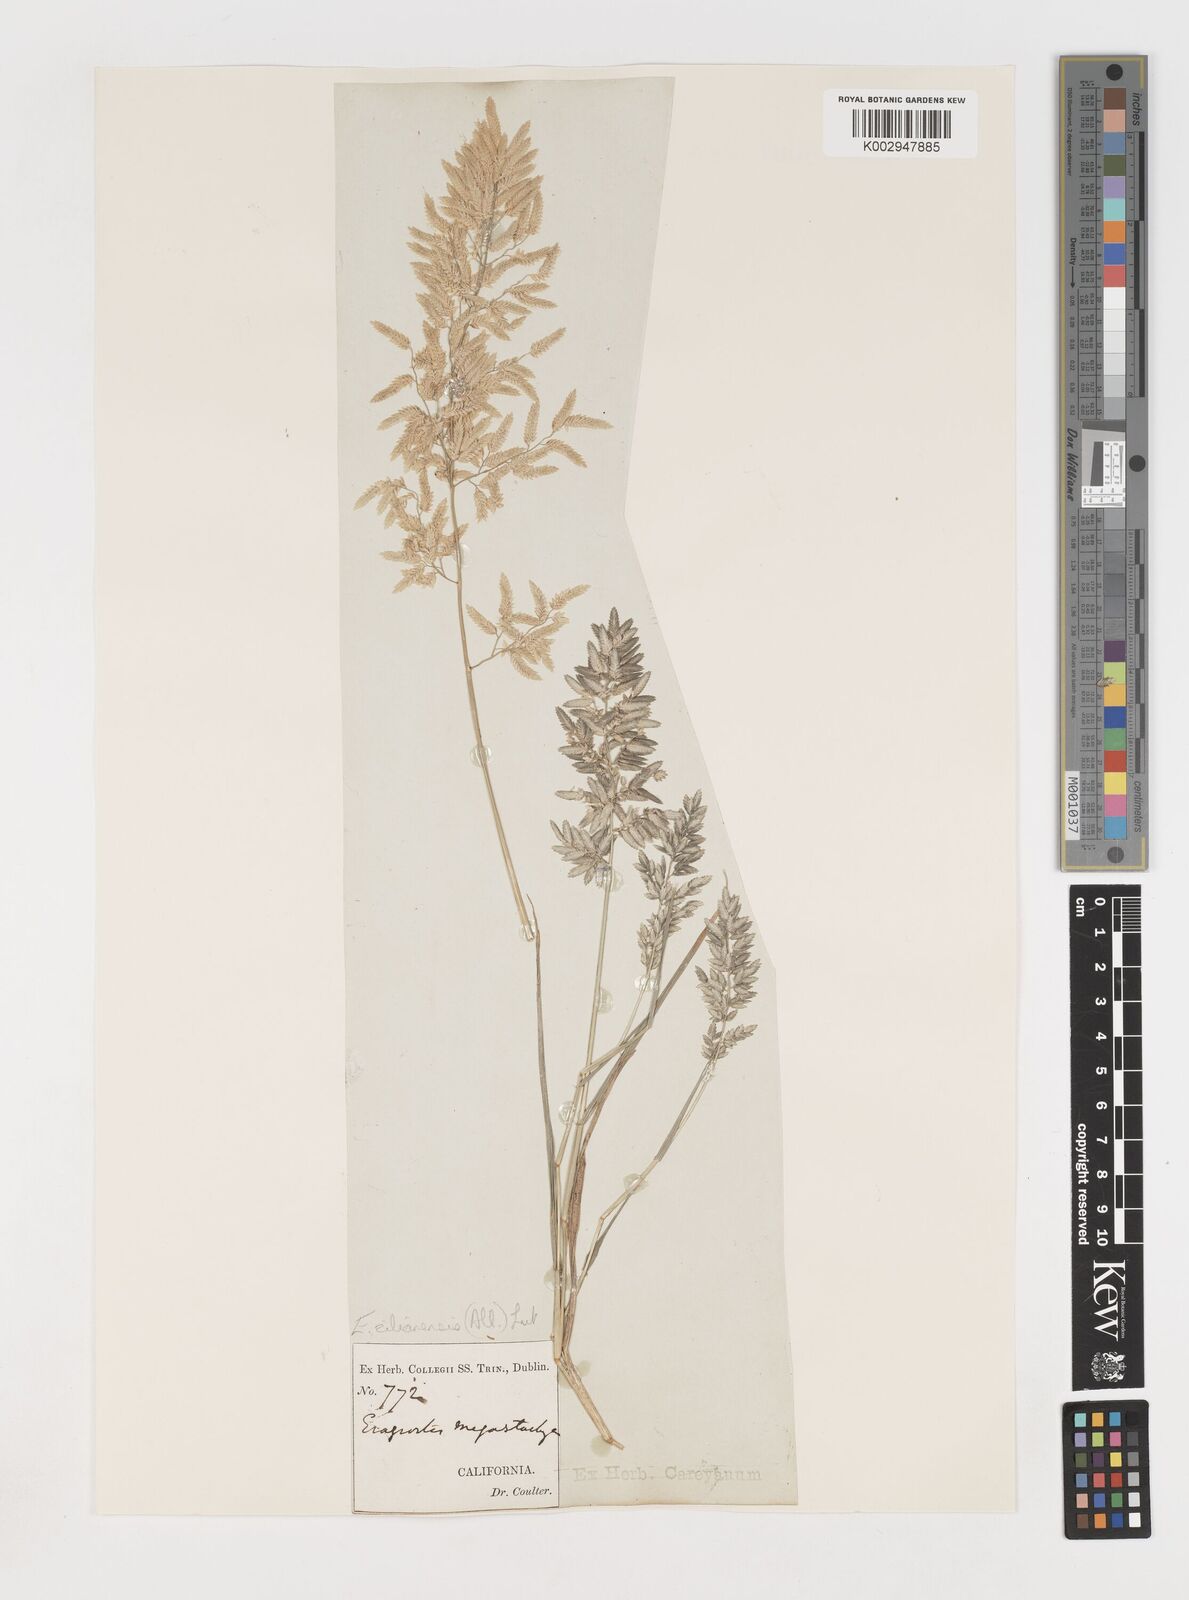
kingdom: Plantae
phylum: Tracheophyta
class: Liliopsida
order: Poales
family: Poaceae
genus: Eragrostis
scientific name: Eragrostis cilianensis
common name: Stinkgrass
